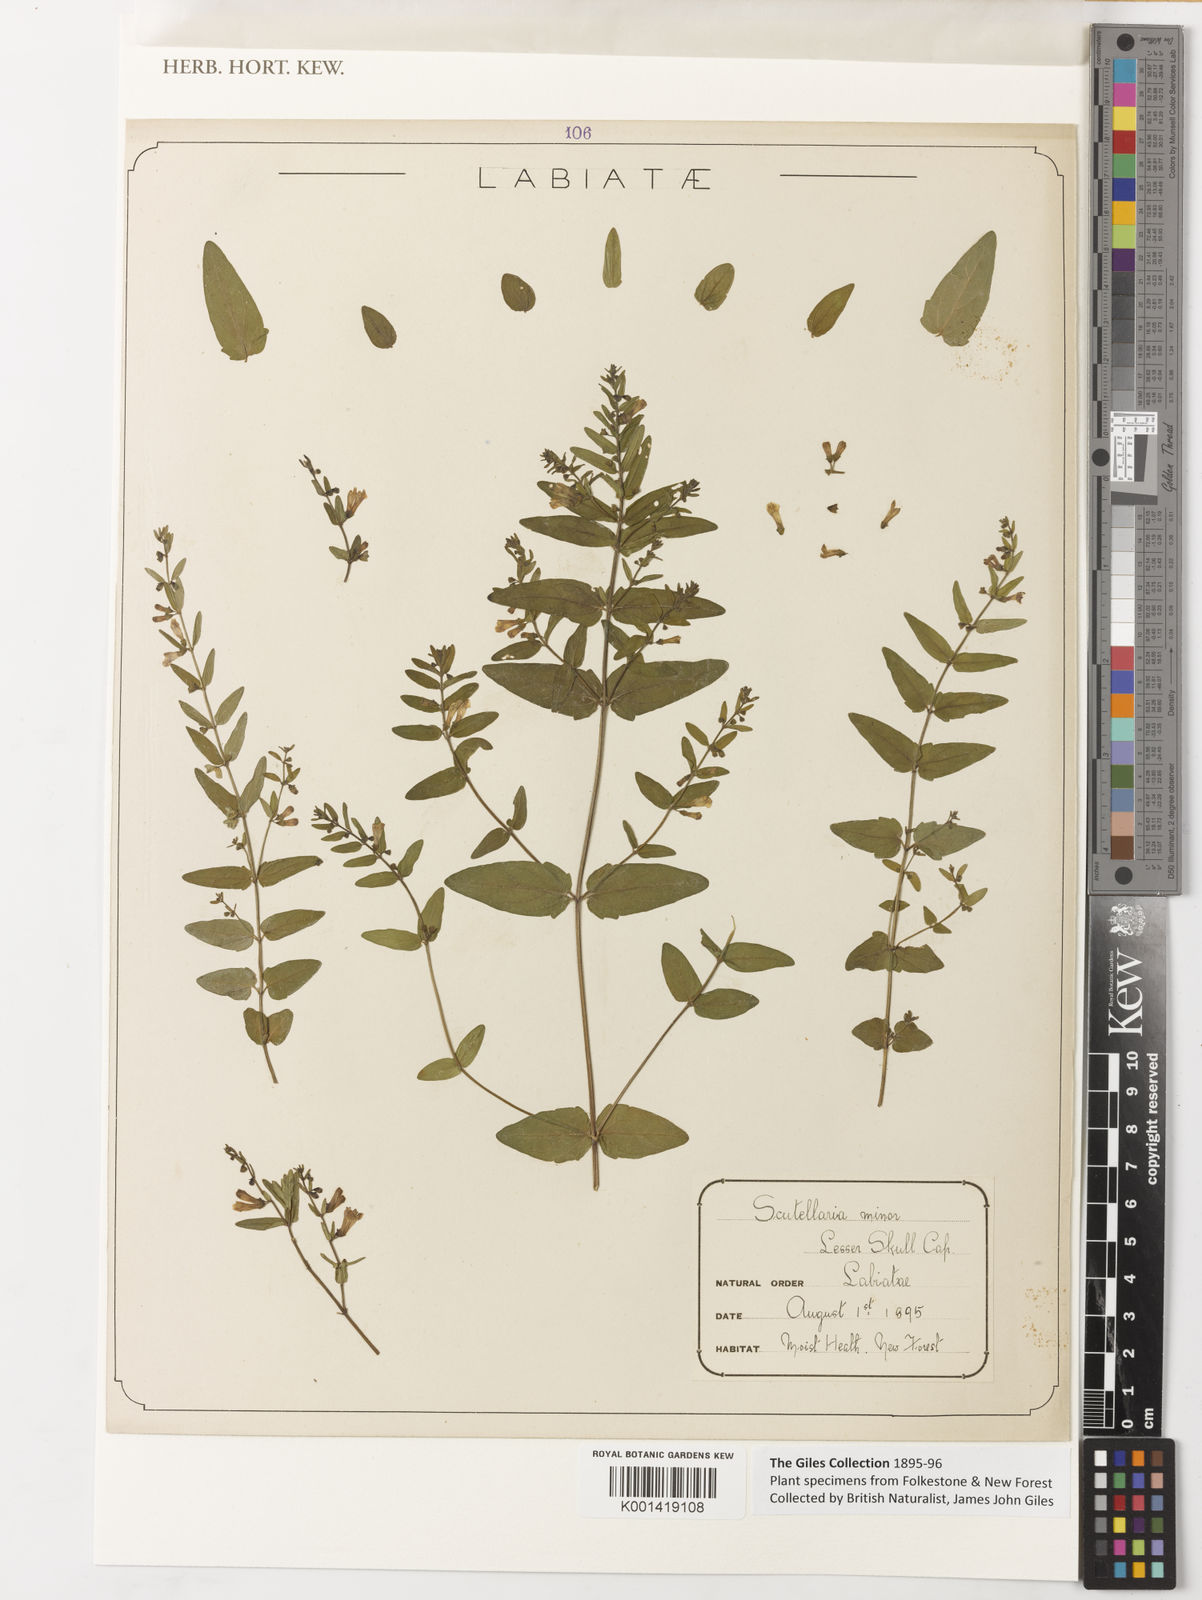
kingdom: Plantae
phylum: Tracheophyta
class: Magnoliopsida
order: Lamiales
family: Lamiaceae
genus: Scutellaria
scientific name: Scutellaria minor
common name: Lesser skullcap
